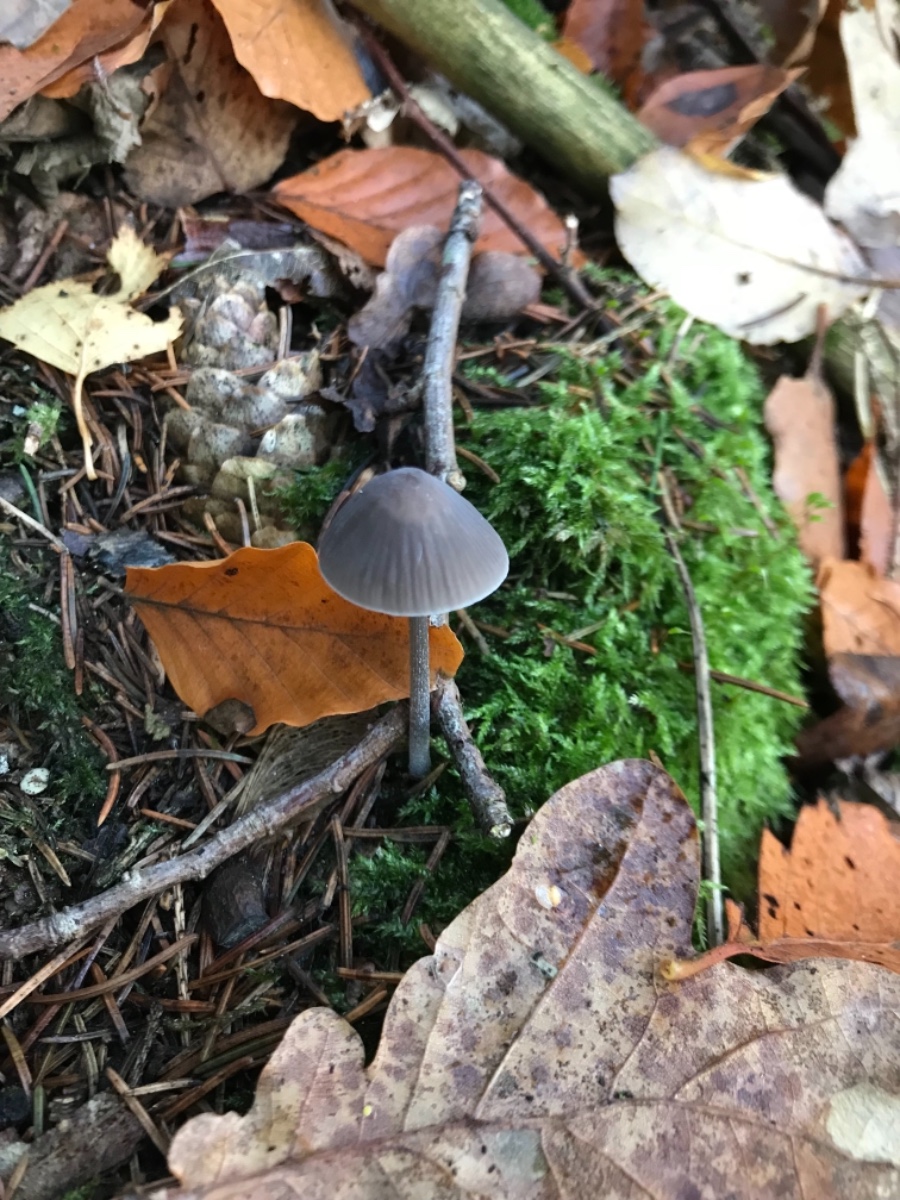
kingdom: Fungi
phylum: Basidiomycota
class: Agaricomycetes
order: Agaricales
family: Mycenaceae
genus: Mycena
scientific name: Mycena
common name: huesvamp
